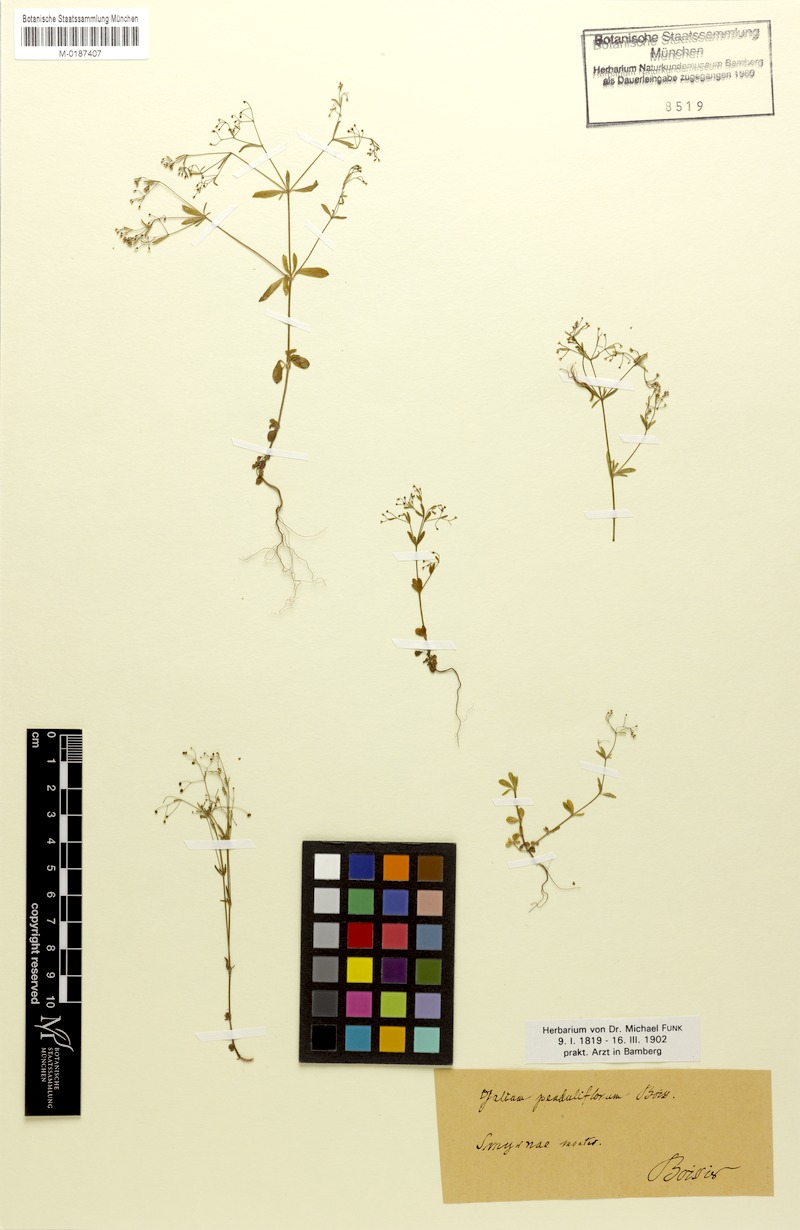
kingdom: Plantae
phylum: Tracheophyta
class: Magnoliopsida
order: Gentianales
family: Rubiaceae
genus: Galium
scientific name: Galium penduliflorum
